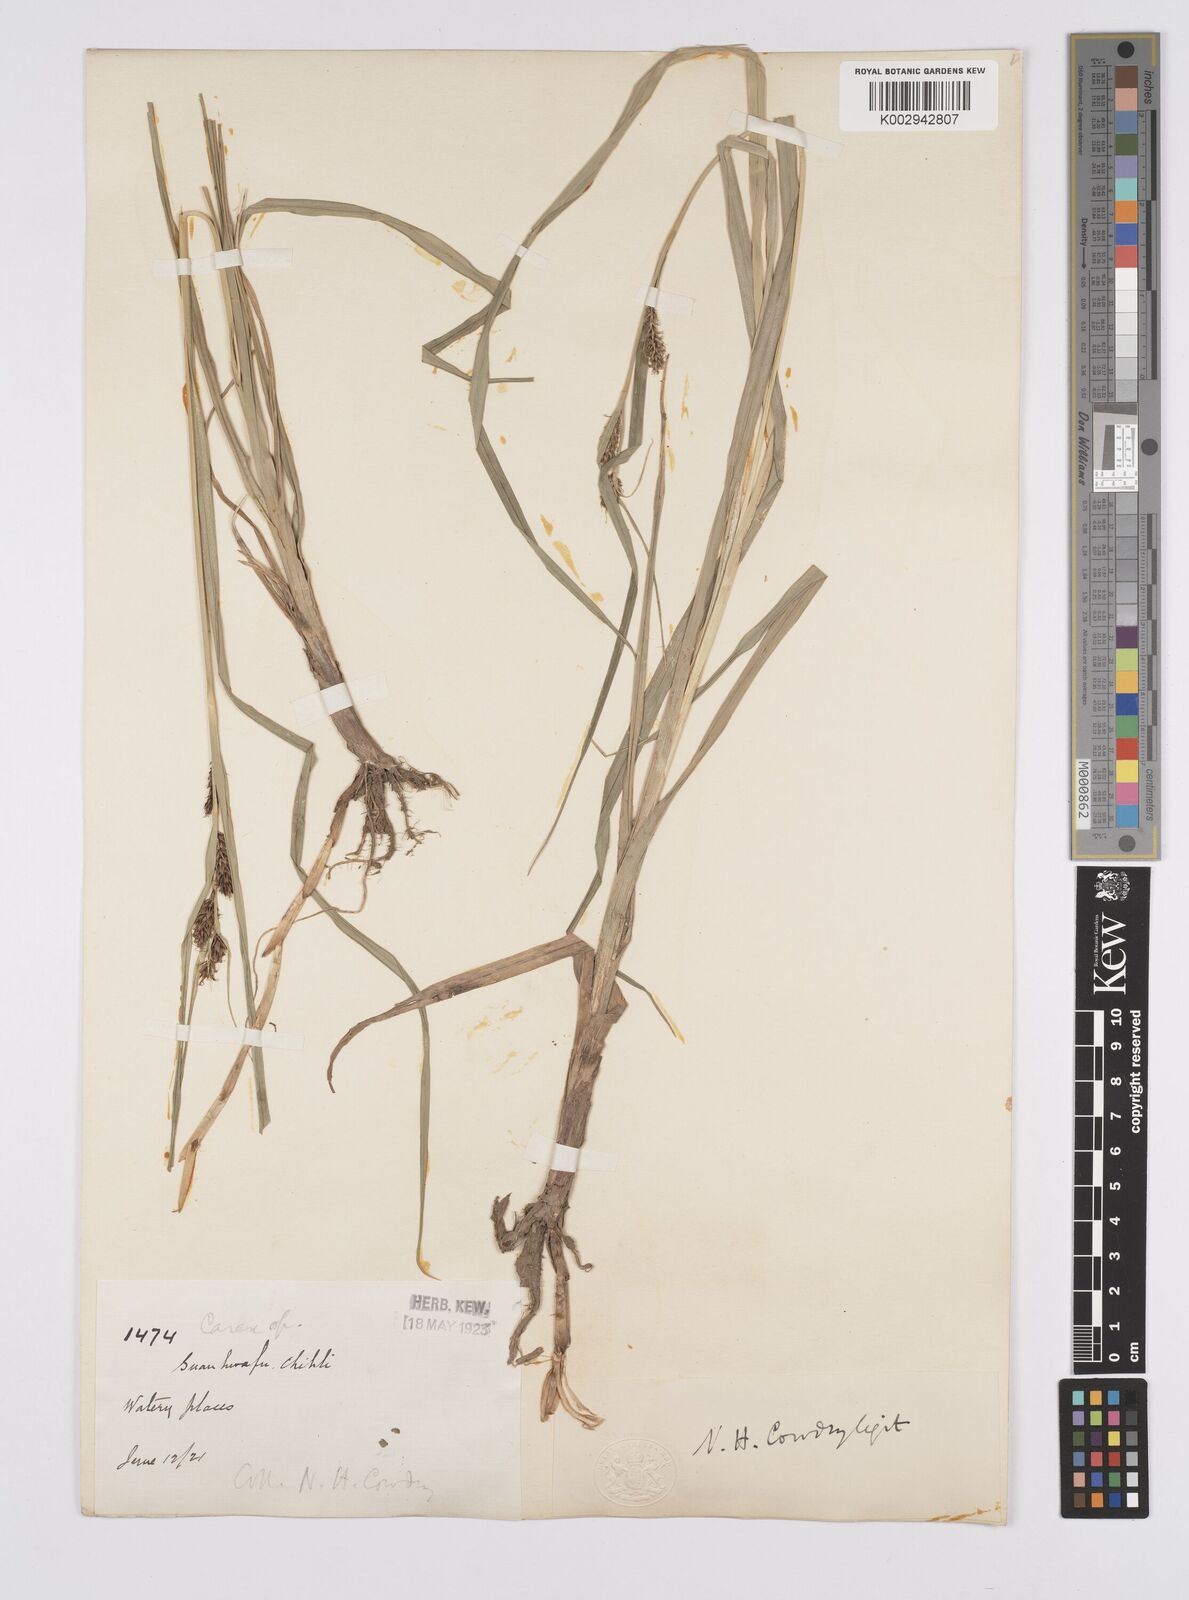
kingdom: Plantae
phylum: Tracheophyta
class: Liliopsida
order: Poales
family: Cyperaceae
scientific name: Cyperaceae
